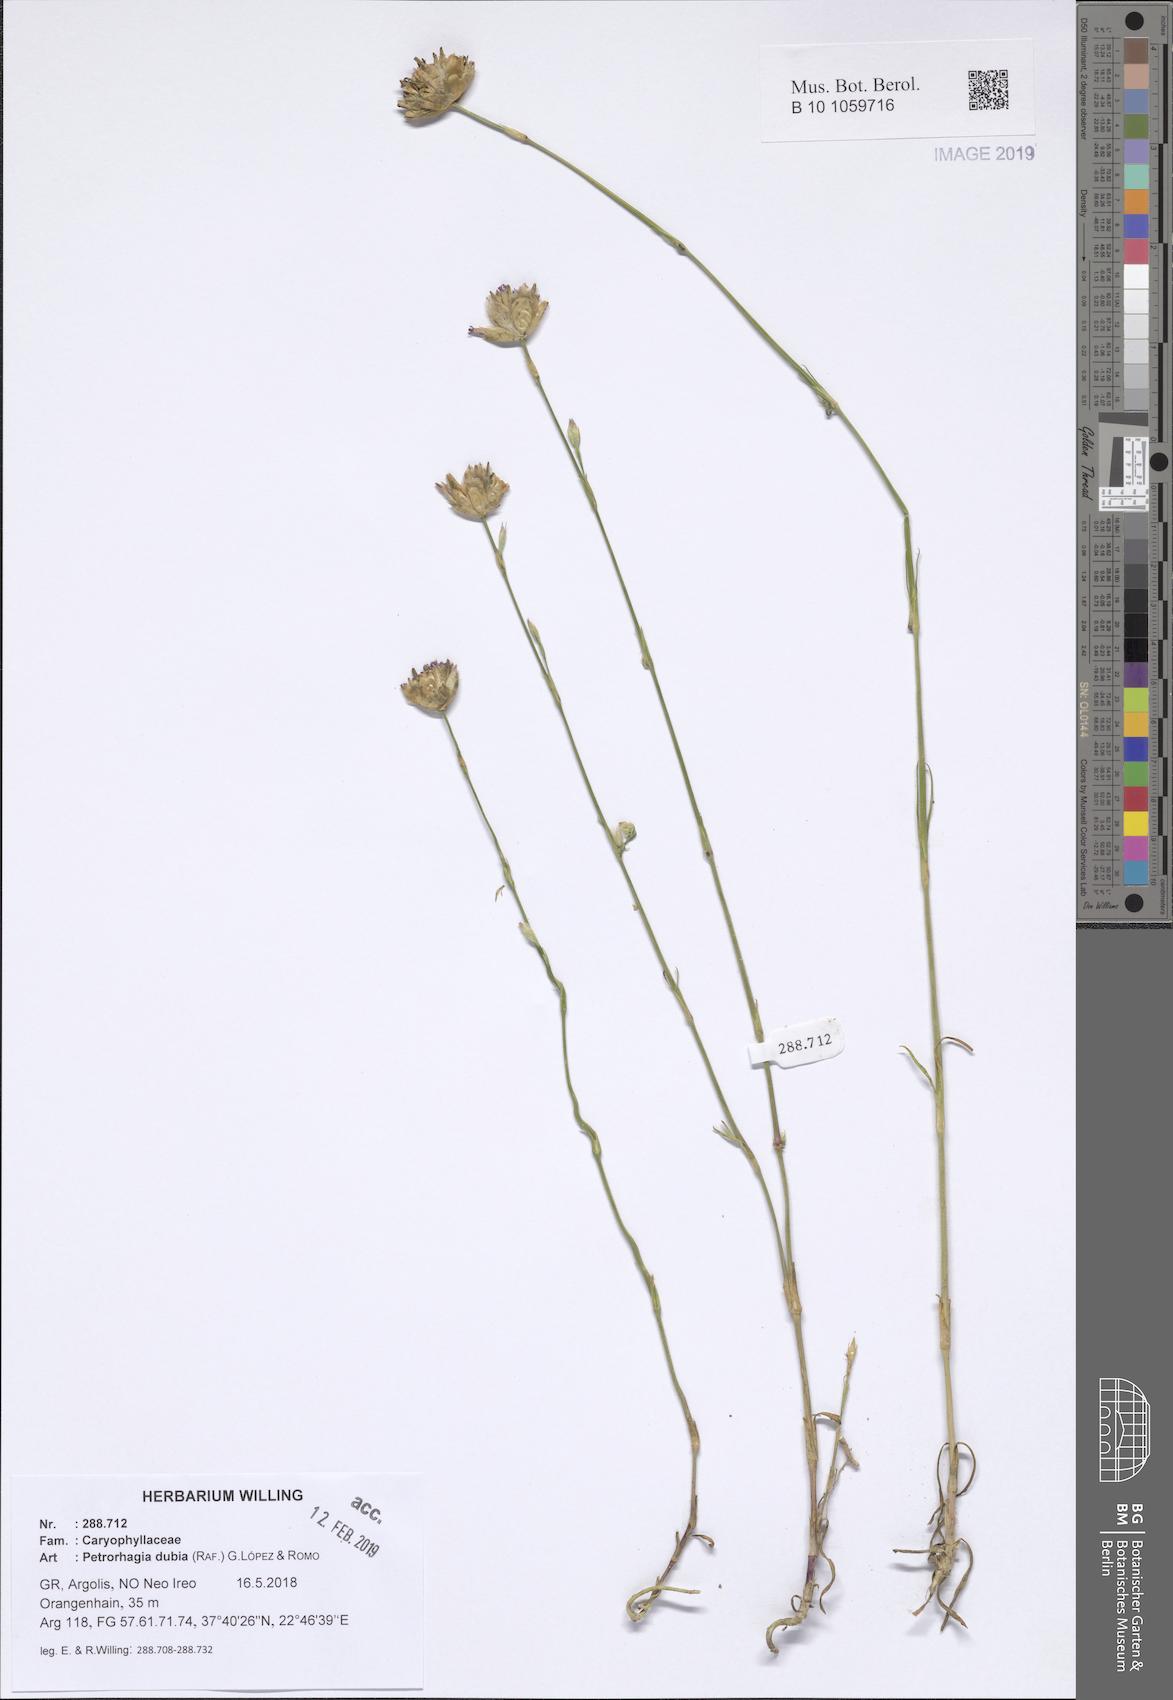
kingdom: Plantae
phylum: Tracheophyta
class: Magnoliopsida
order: Caryophyllales
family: Caryophyllaceae
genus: Petrorhagia
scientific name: Petrorhagia dubia
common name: Hairypink
